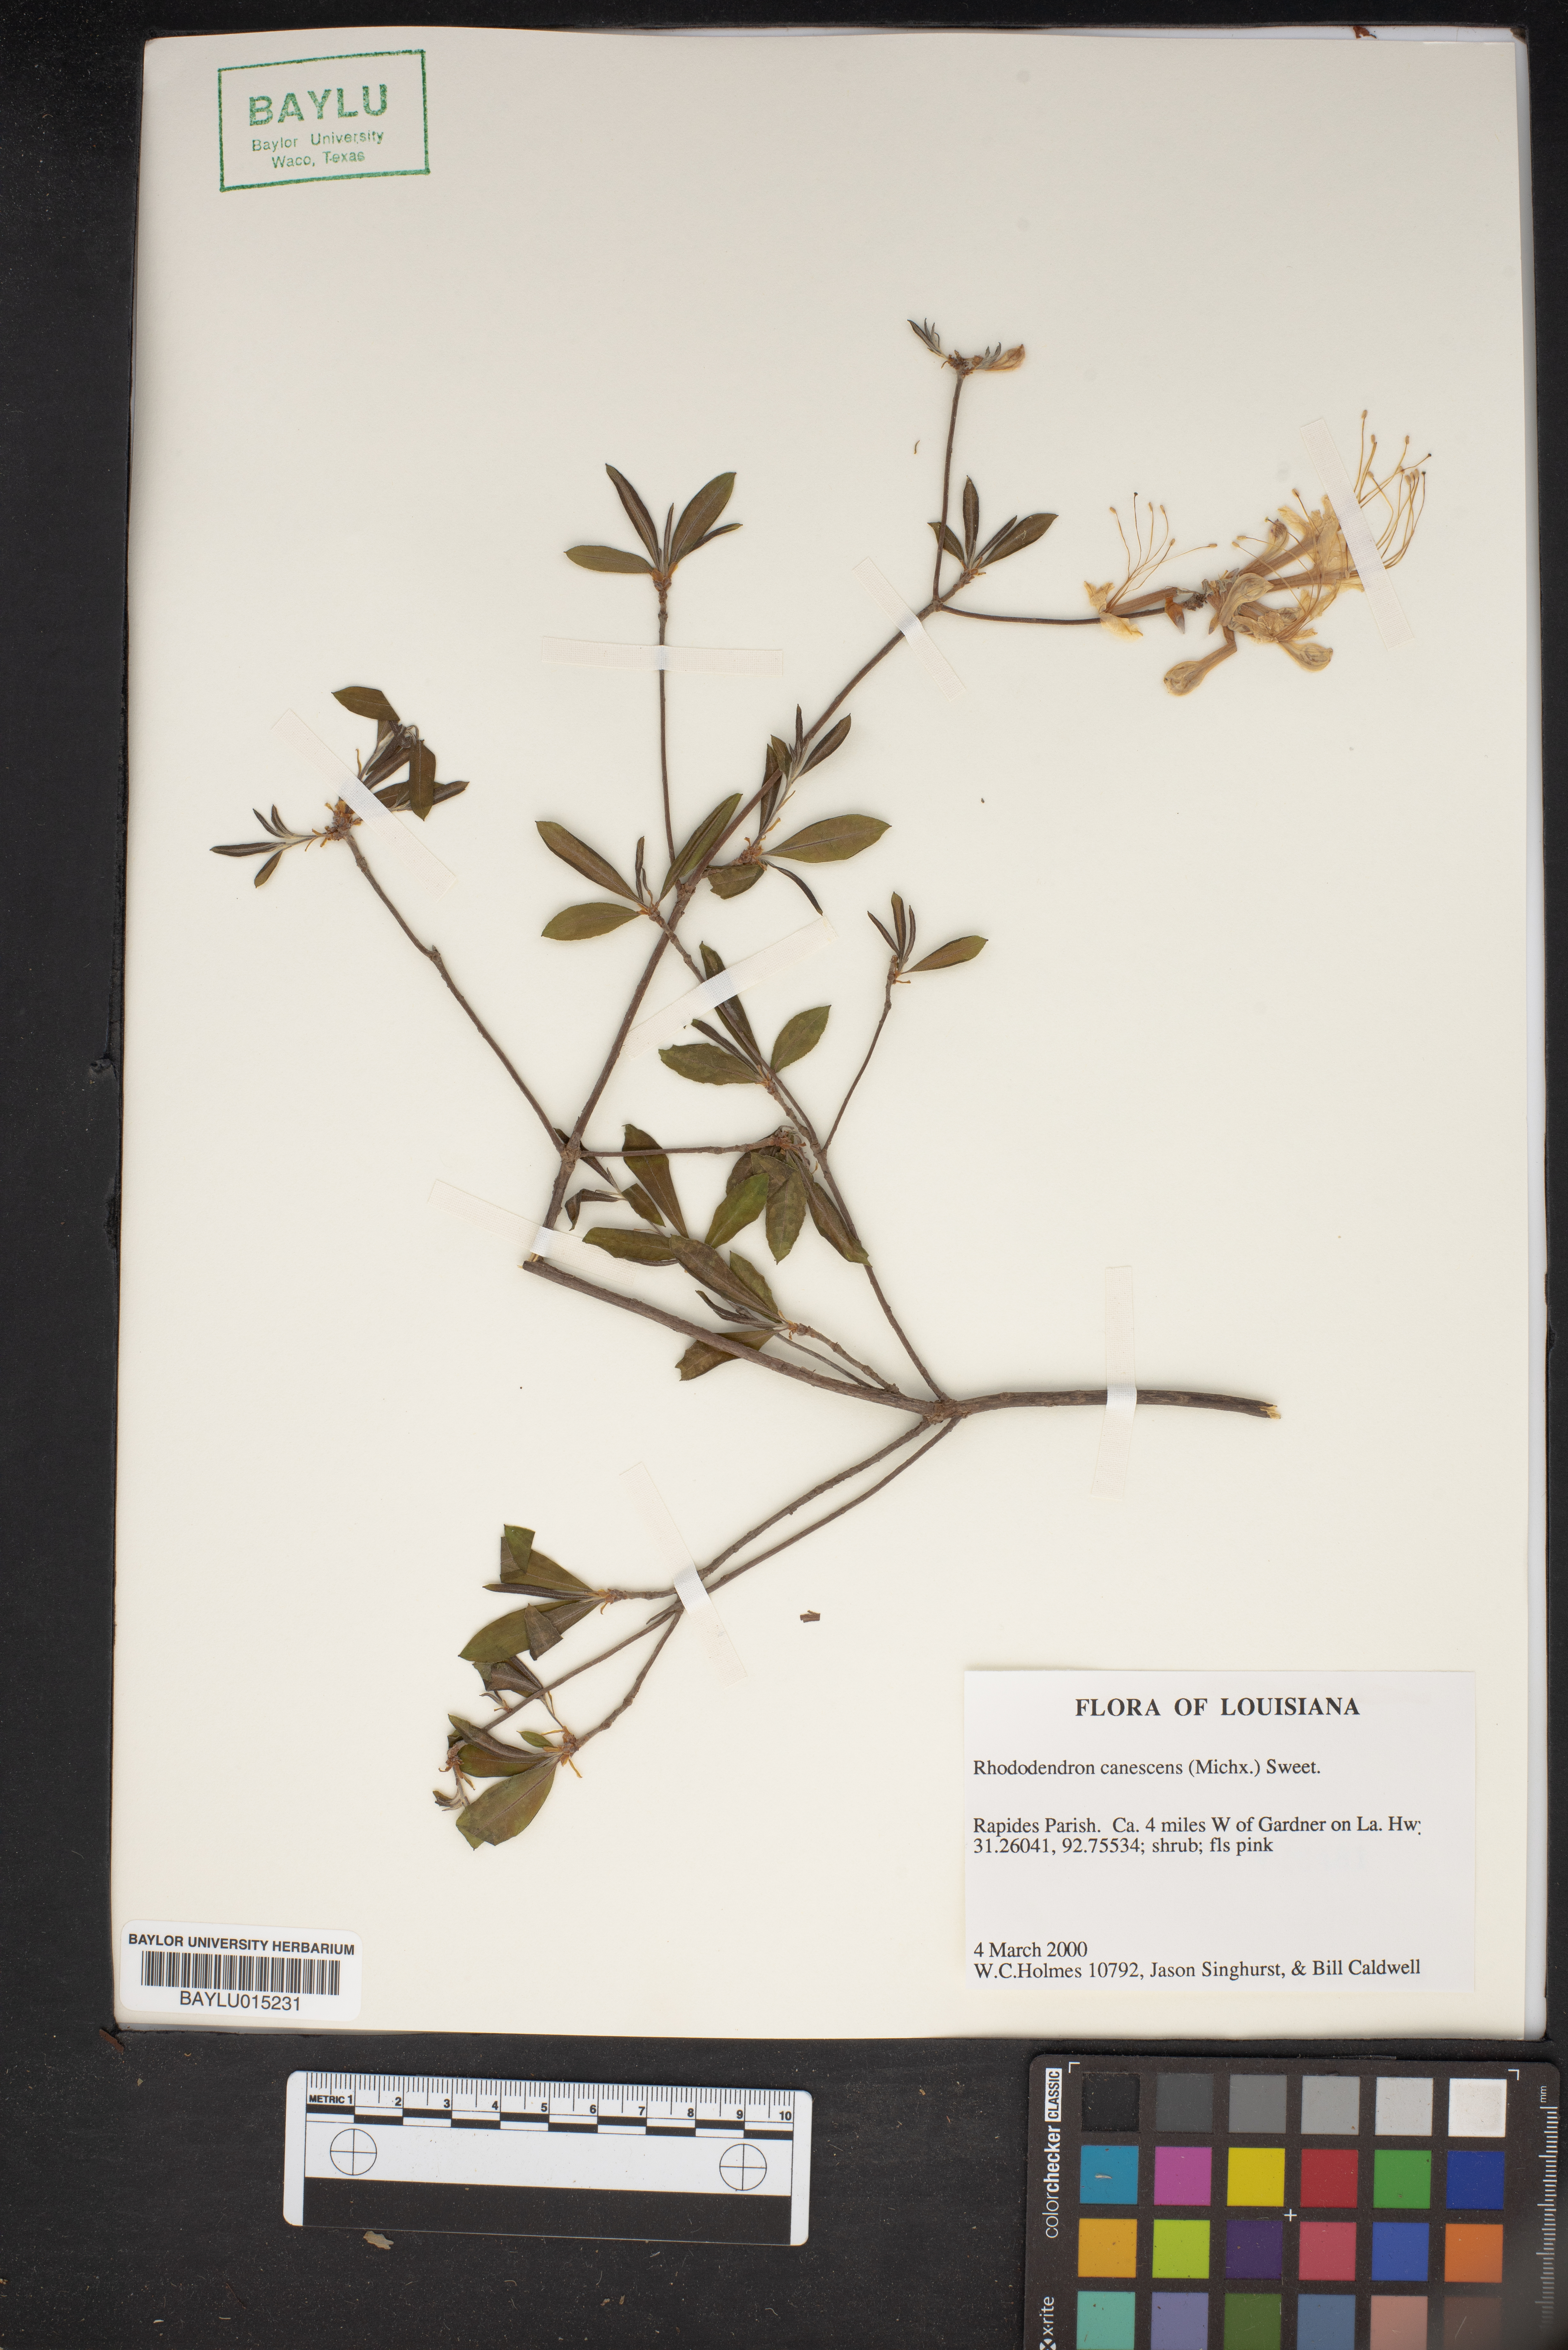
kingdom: Plantae
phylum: Tracheophyta
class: Magnoliopsida
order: Ericales
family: Ericaceae
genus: Rhododendron
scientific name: Rhododendron canescens
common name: Mountain azalea
